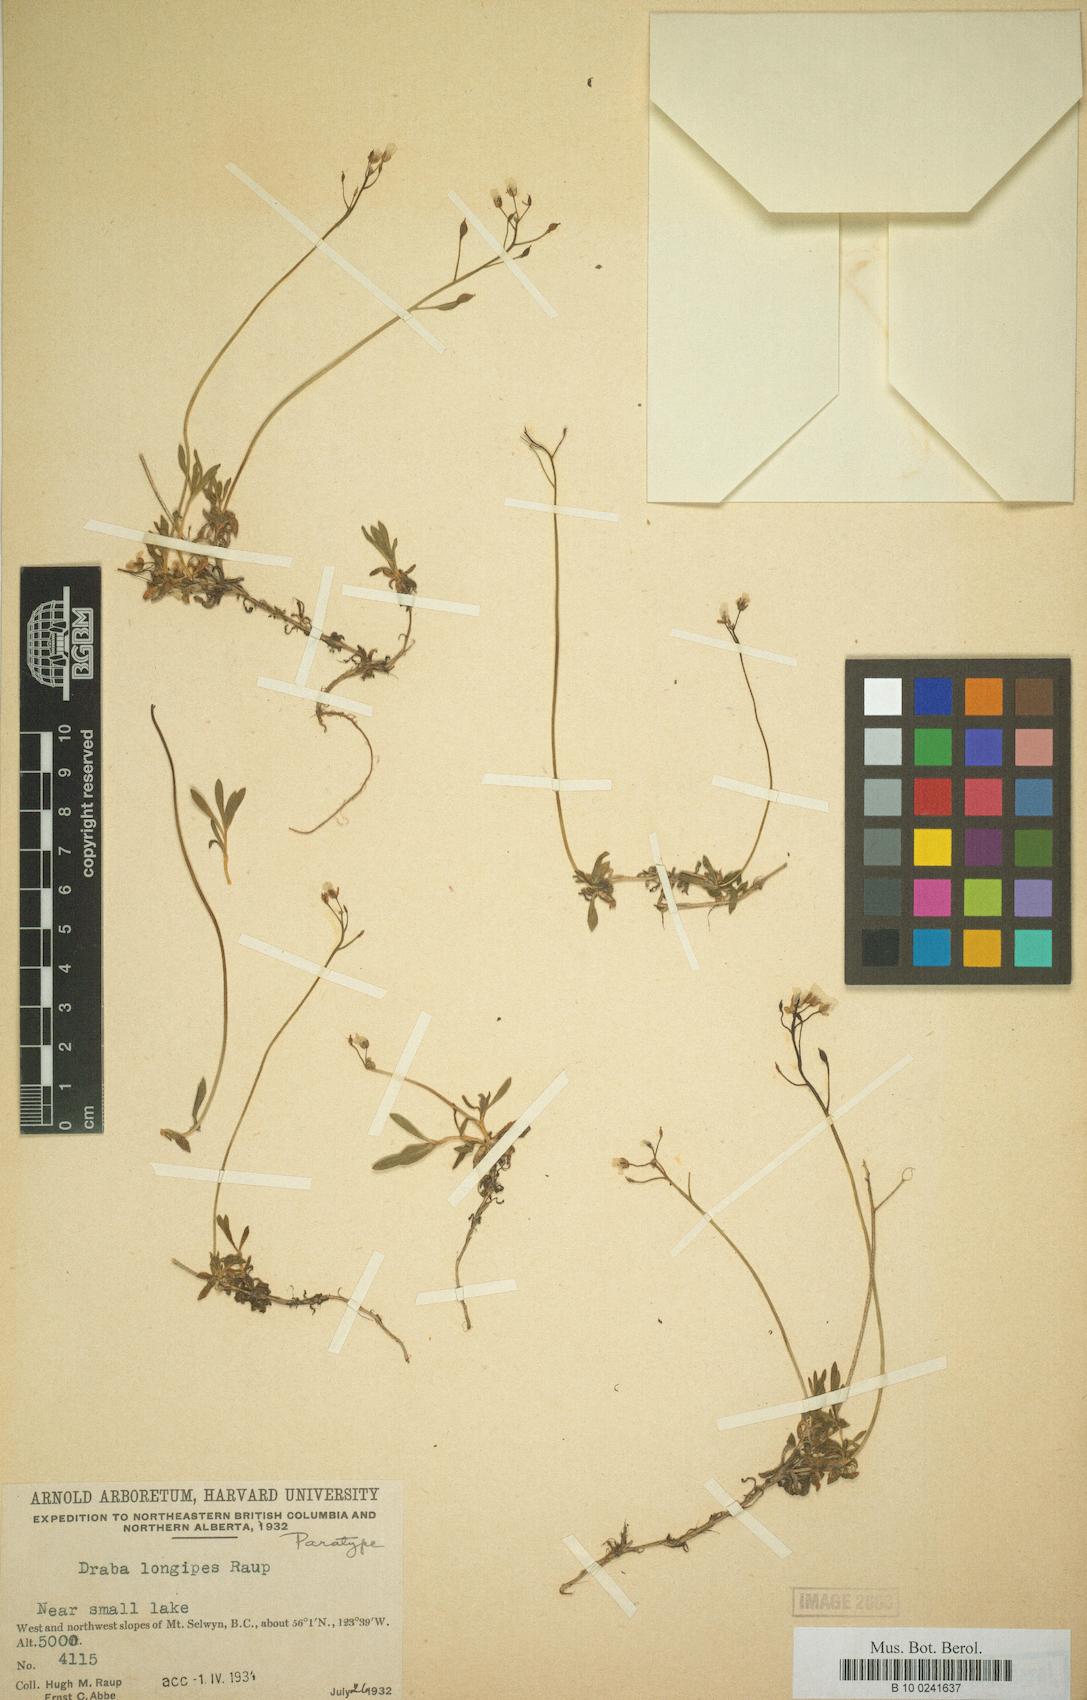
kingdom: Plantae
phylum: Tracheophyta
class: Magnoliopsida
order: Brassicales
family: Brassicaceae
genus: Draba
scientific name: Draba juvenilis
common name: Long-stalked draba
